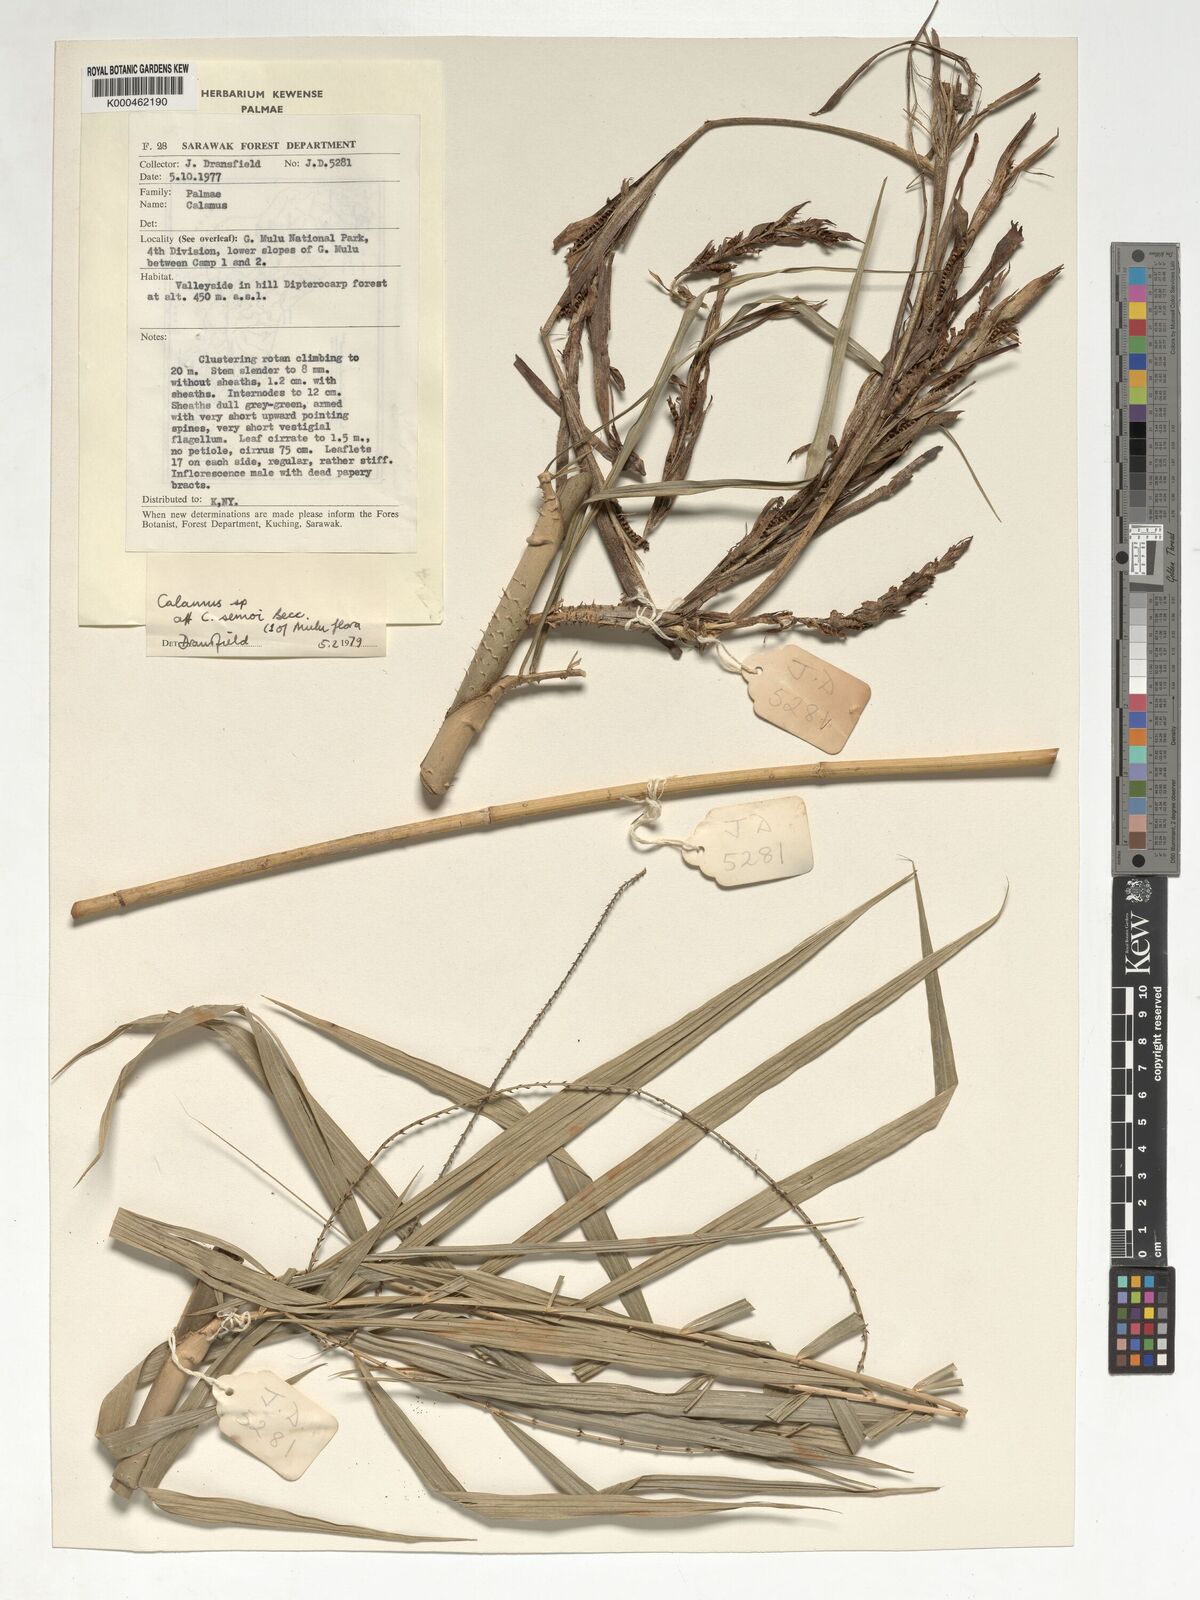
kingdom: Plantae
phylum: Tracheophyta
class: Liliopsida
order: Arecales
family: Arecaceae
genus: Calamus
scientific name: Calamus erioacanthus
